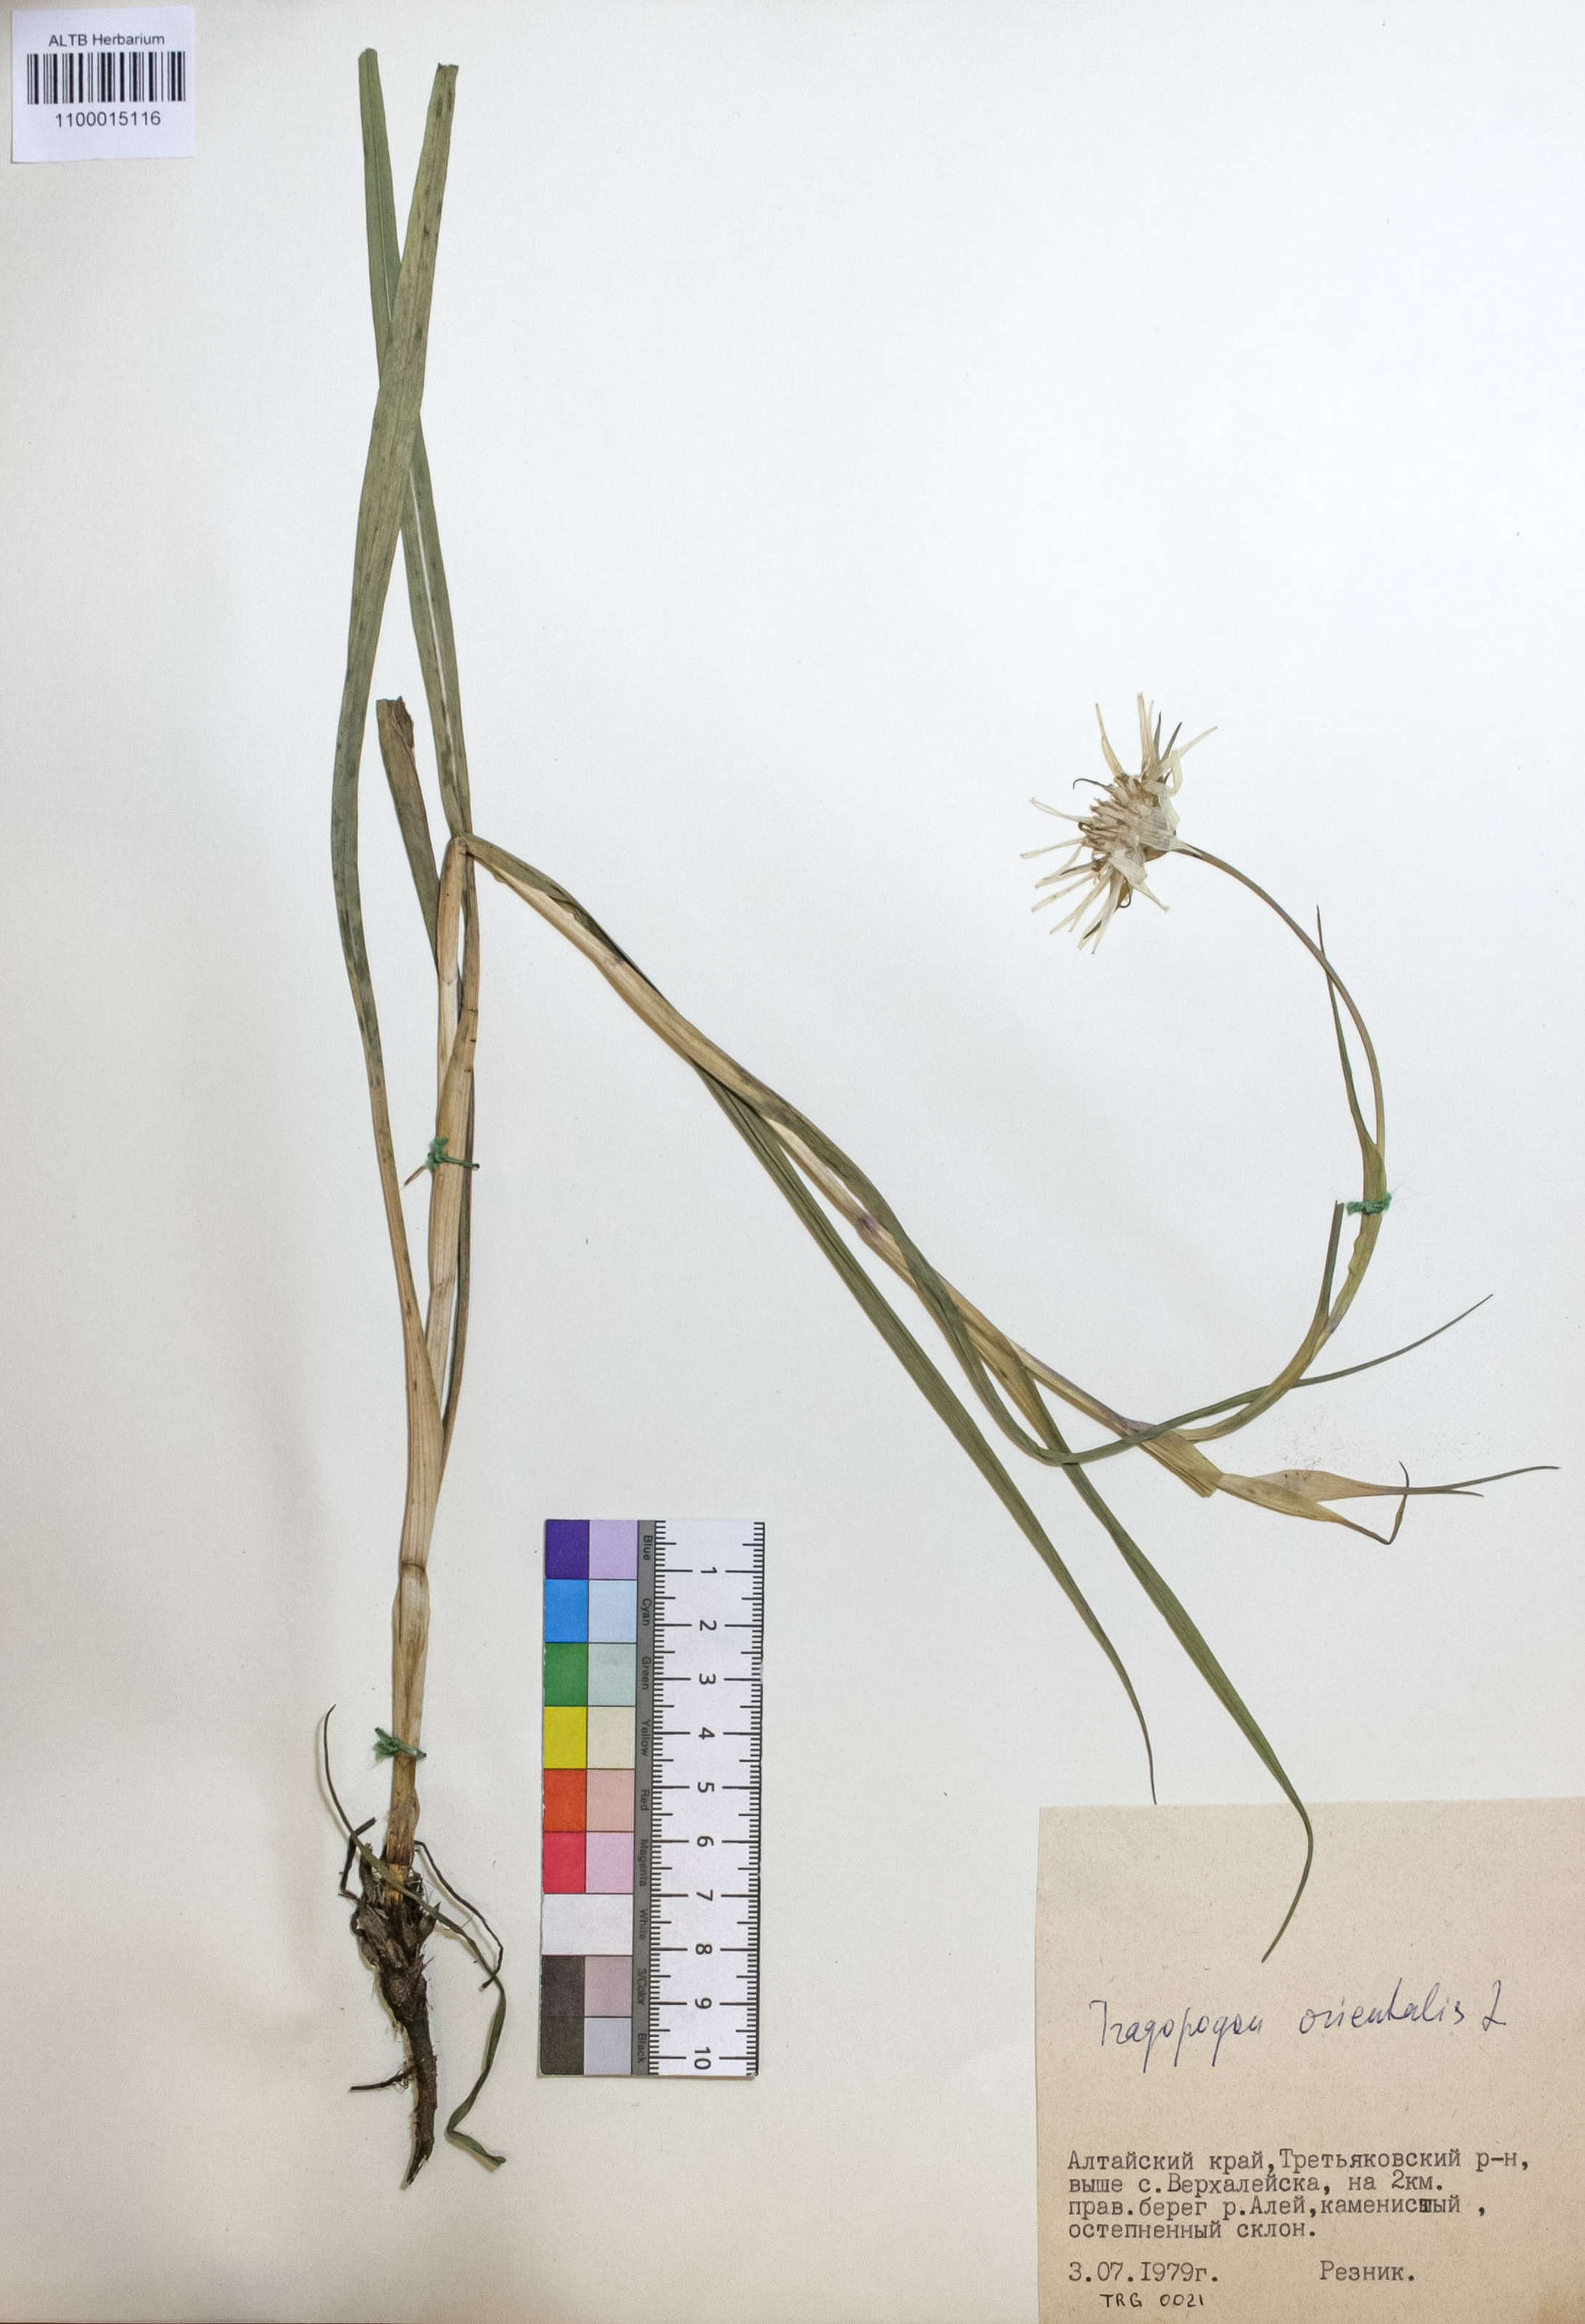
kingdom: Plantae
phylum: Tracheophyta
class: Magnoliopsida
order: Asterales
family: Asteraceae
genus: Tragopogon
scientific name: Tragopogon orientalis
